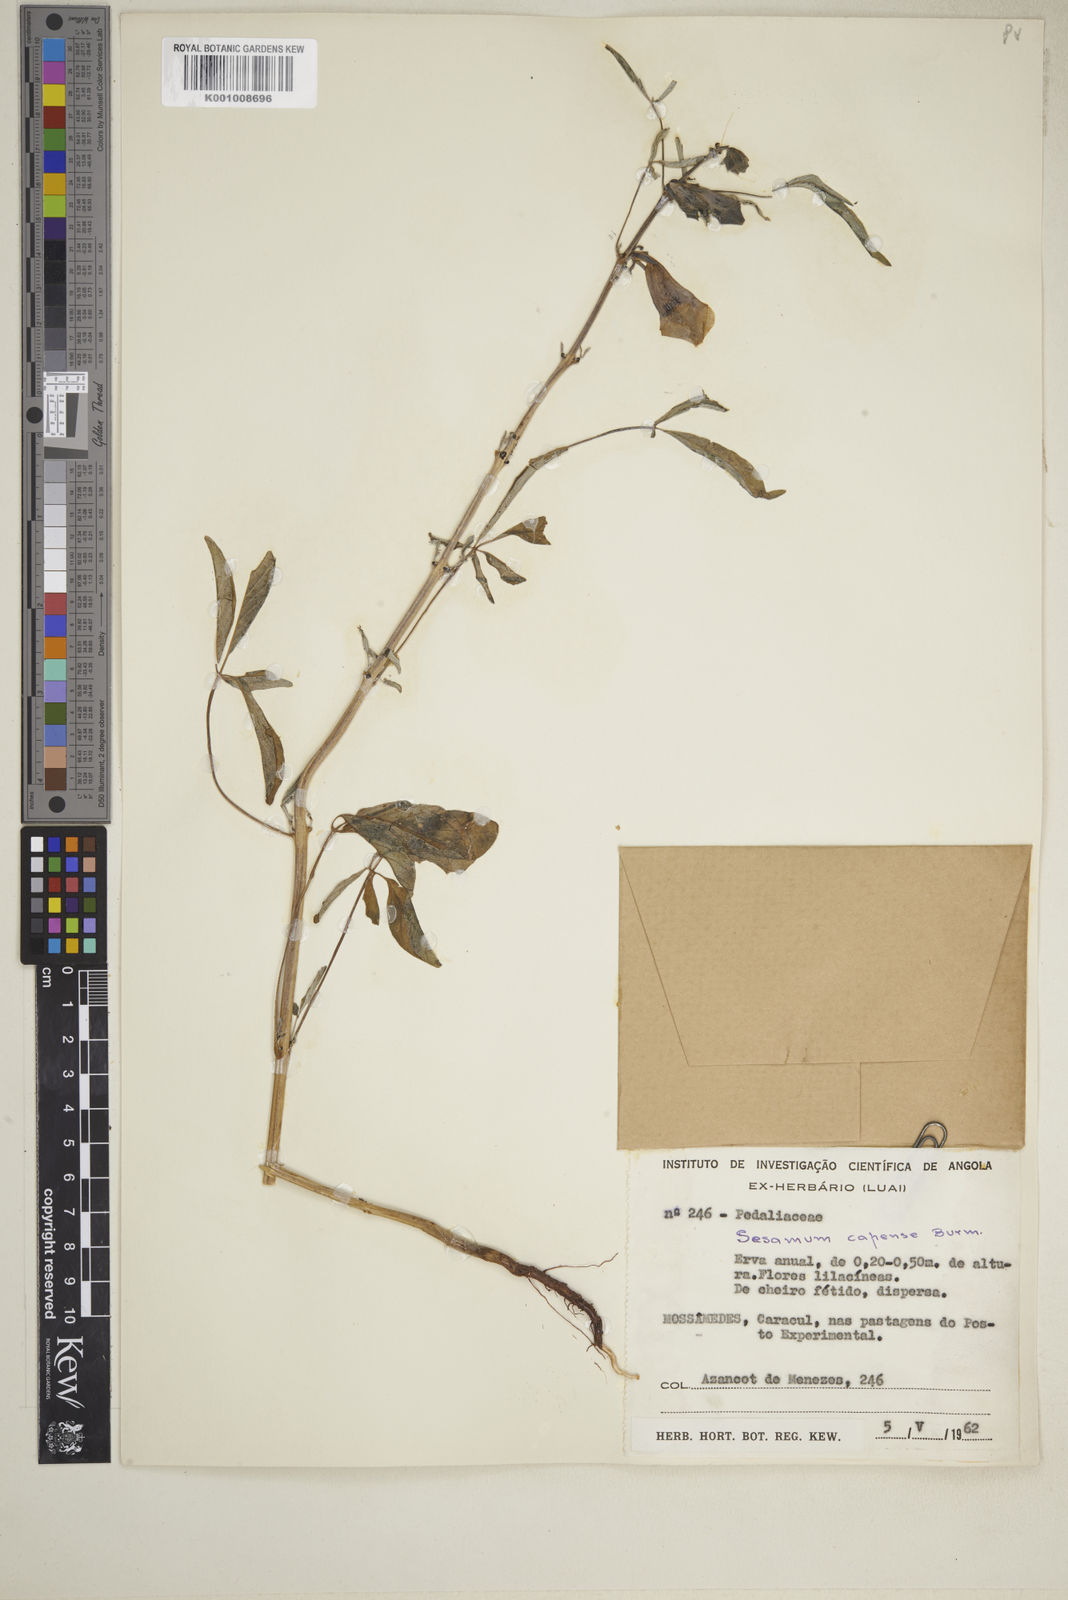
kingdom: Plantae
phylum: Tracheophyta
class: Magnoliopsida
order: Lamiales
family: Pedaliaceae
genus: Sesamum
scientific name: Sesamum capense
